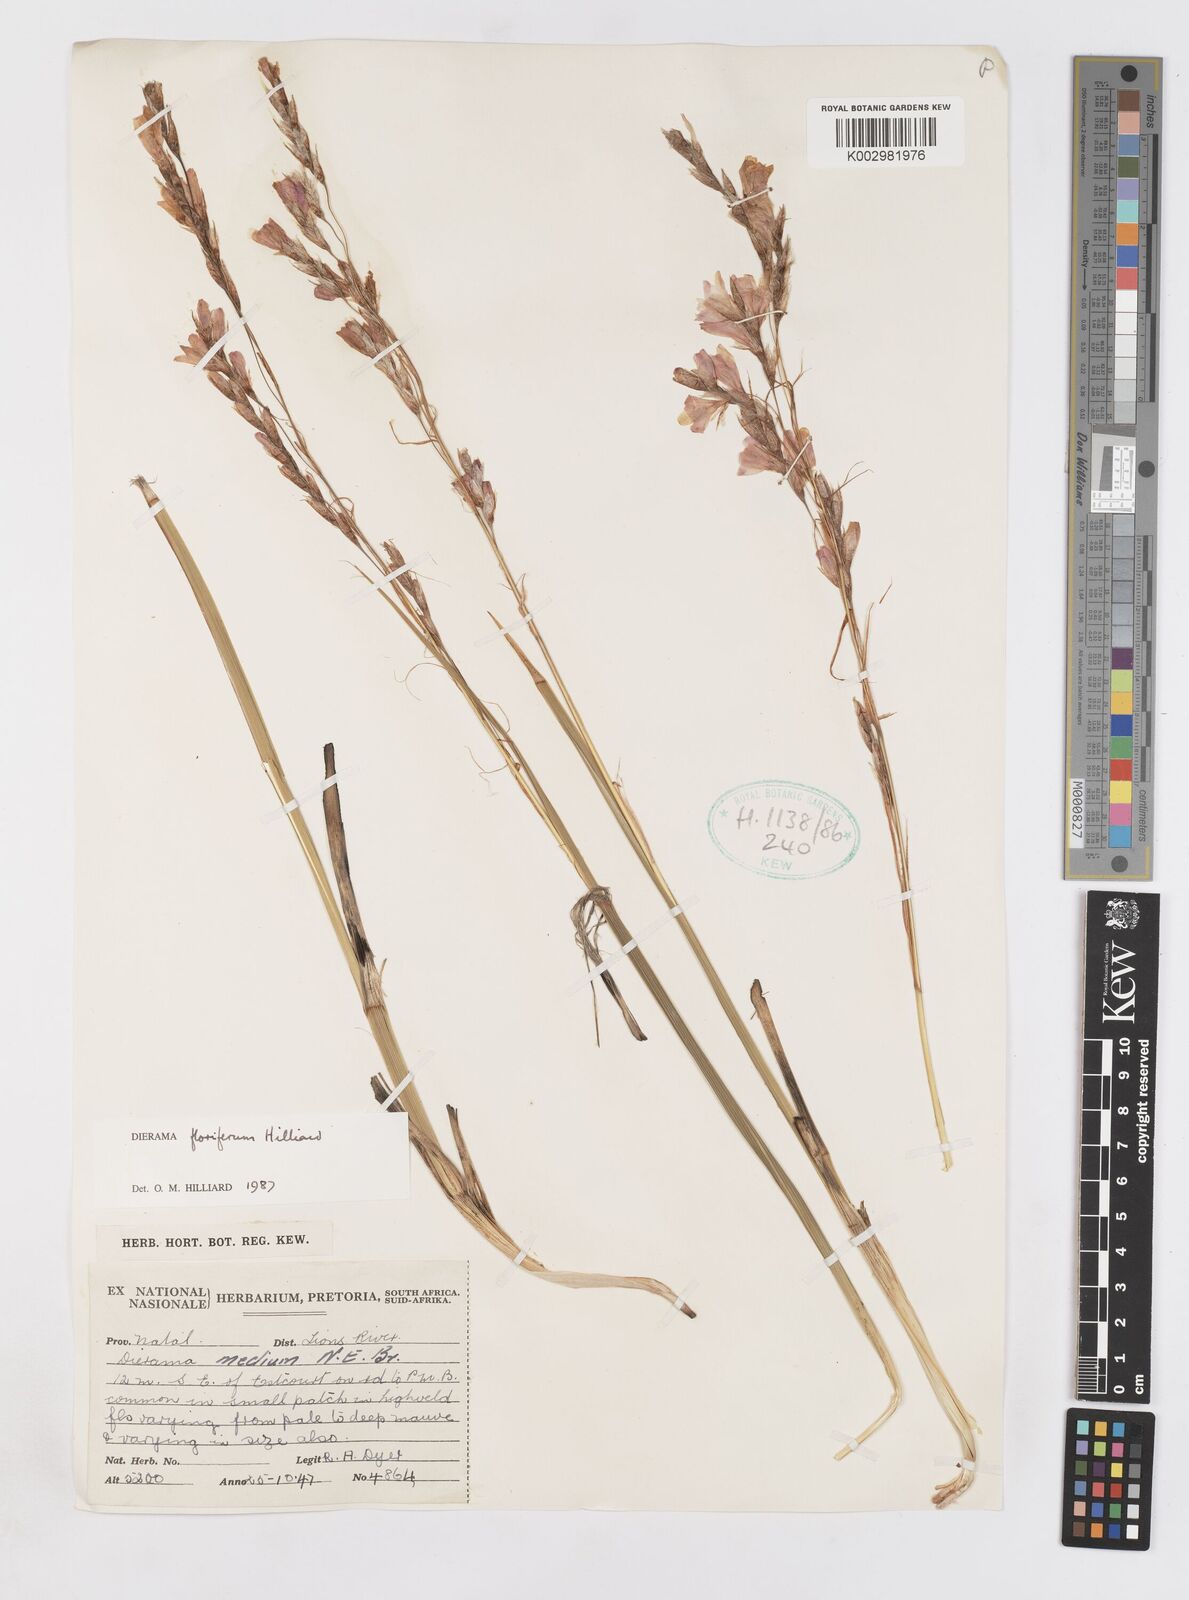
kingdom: Plantae
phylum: Tracheophyta
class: Liliopsida
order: Asparagales
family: Iridaceae
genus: Dierama
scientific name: Dierama floriferum
